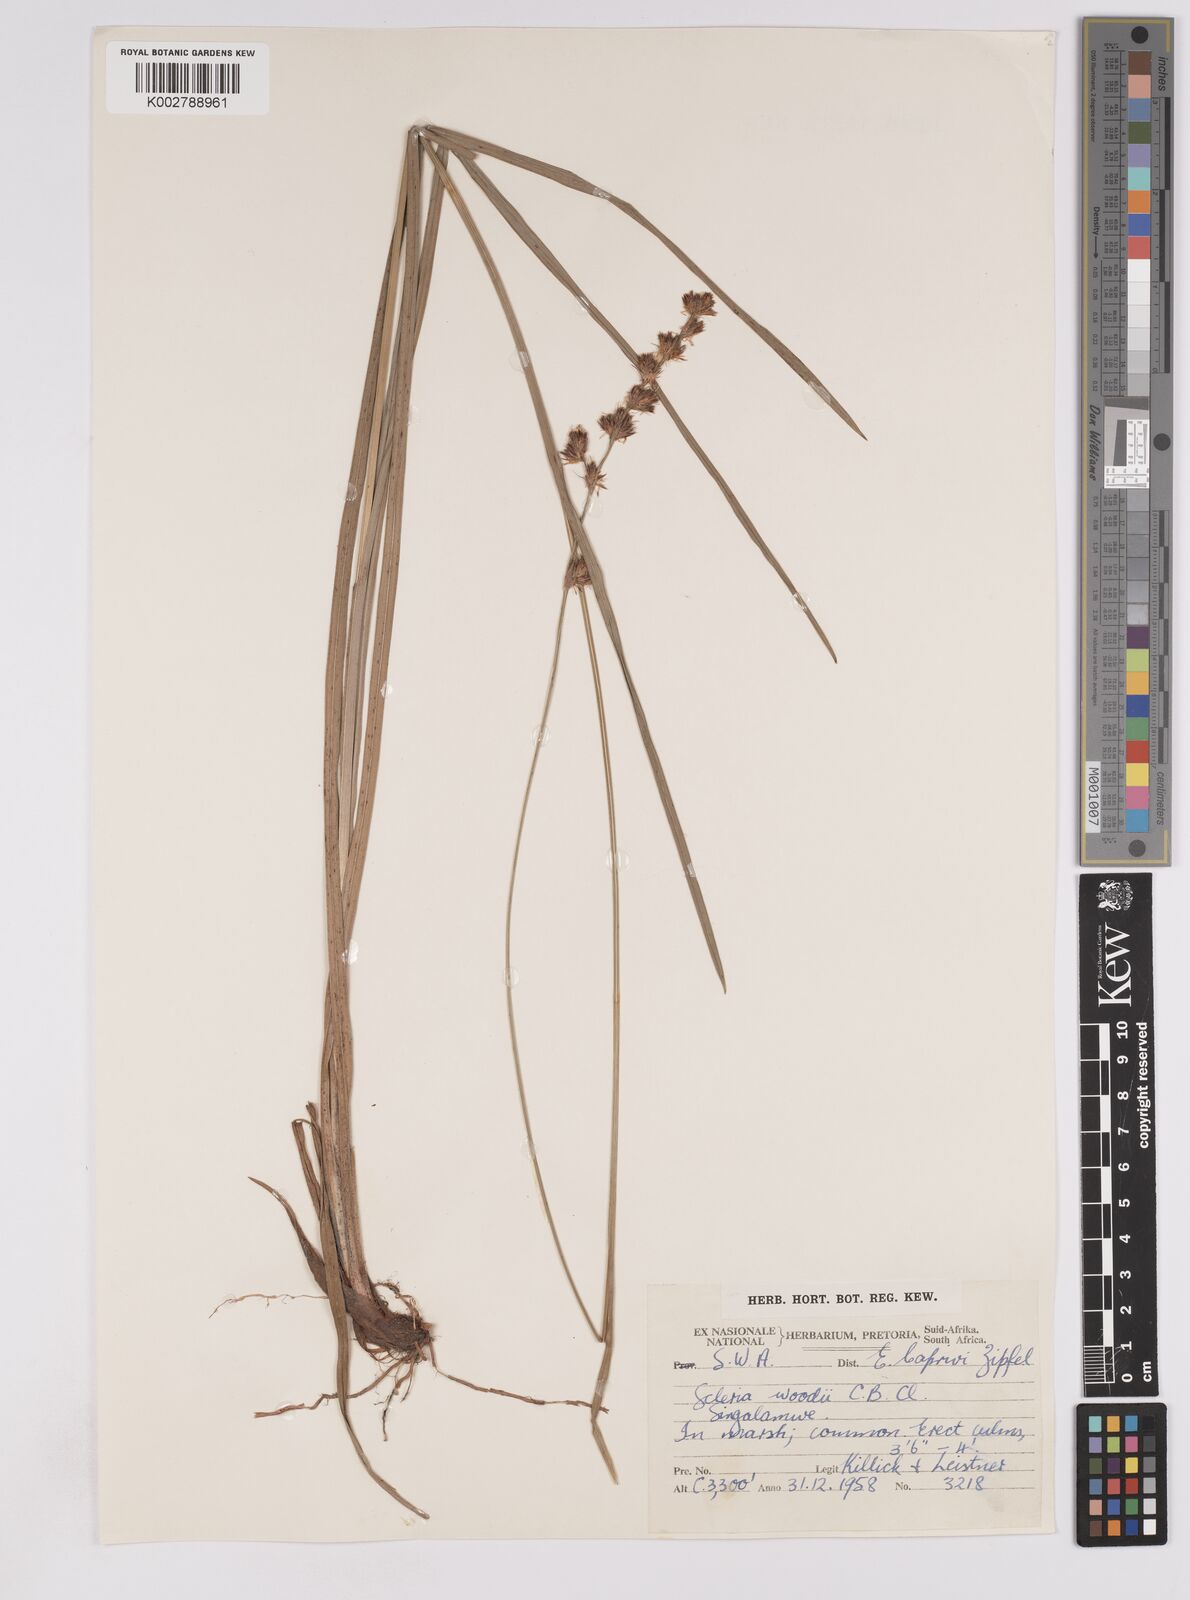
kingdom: Plantae
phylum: Tracheophyta
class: Liliopsida
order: Poales
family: Cyperaceae
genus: Scleria
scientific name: Scleria
